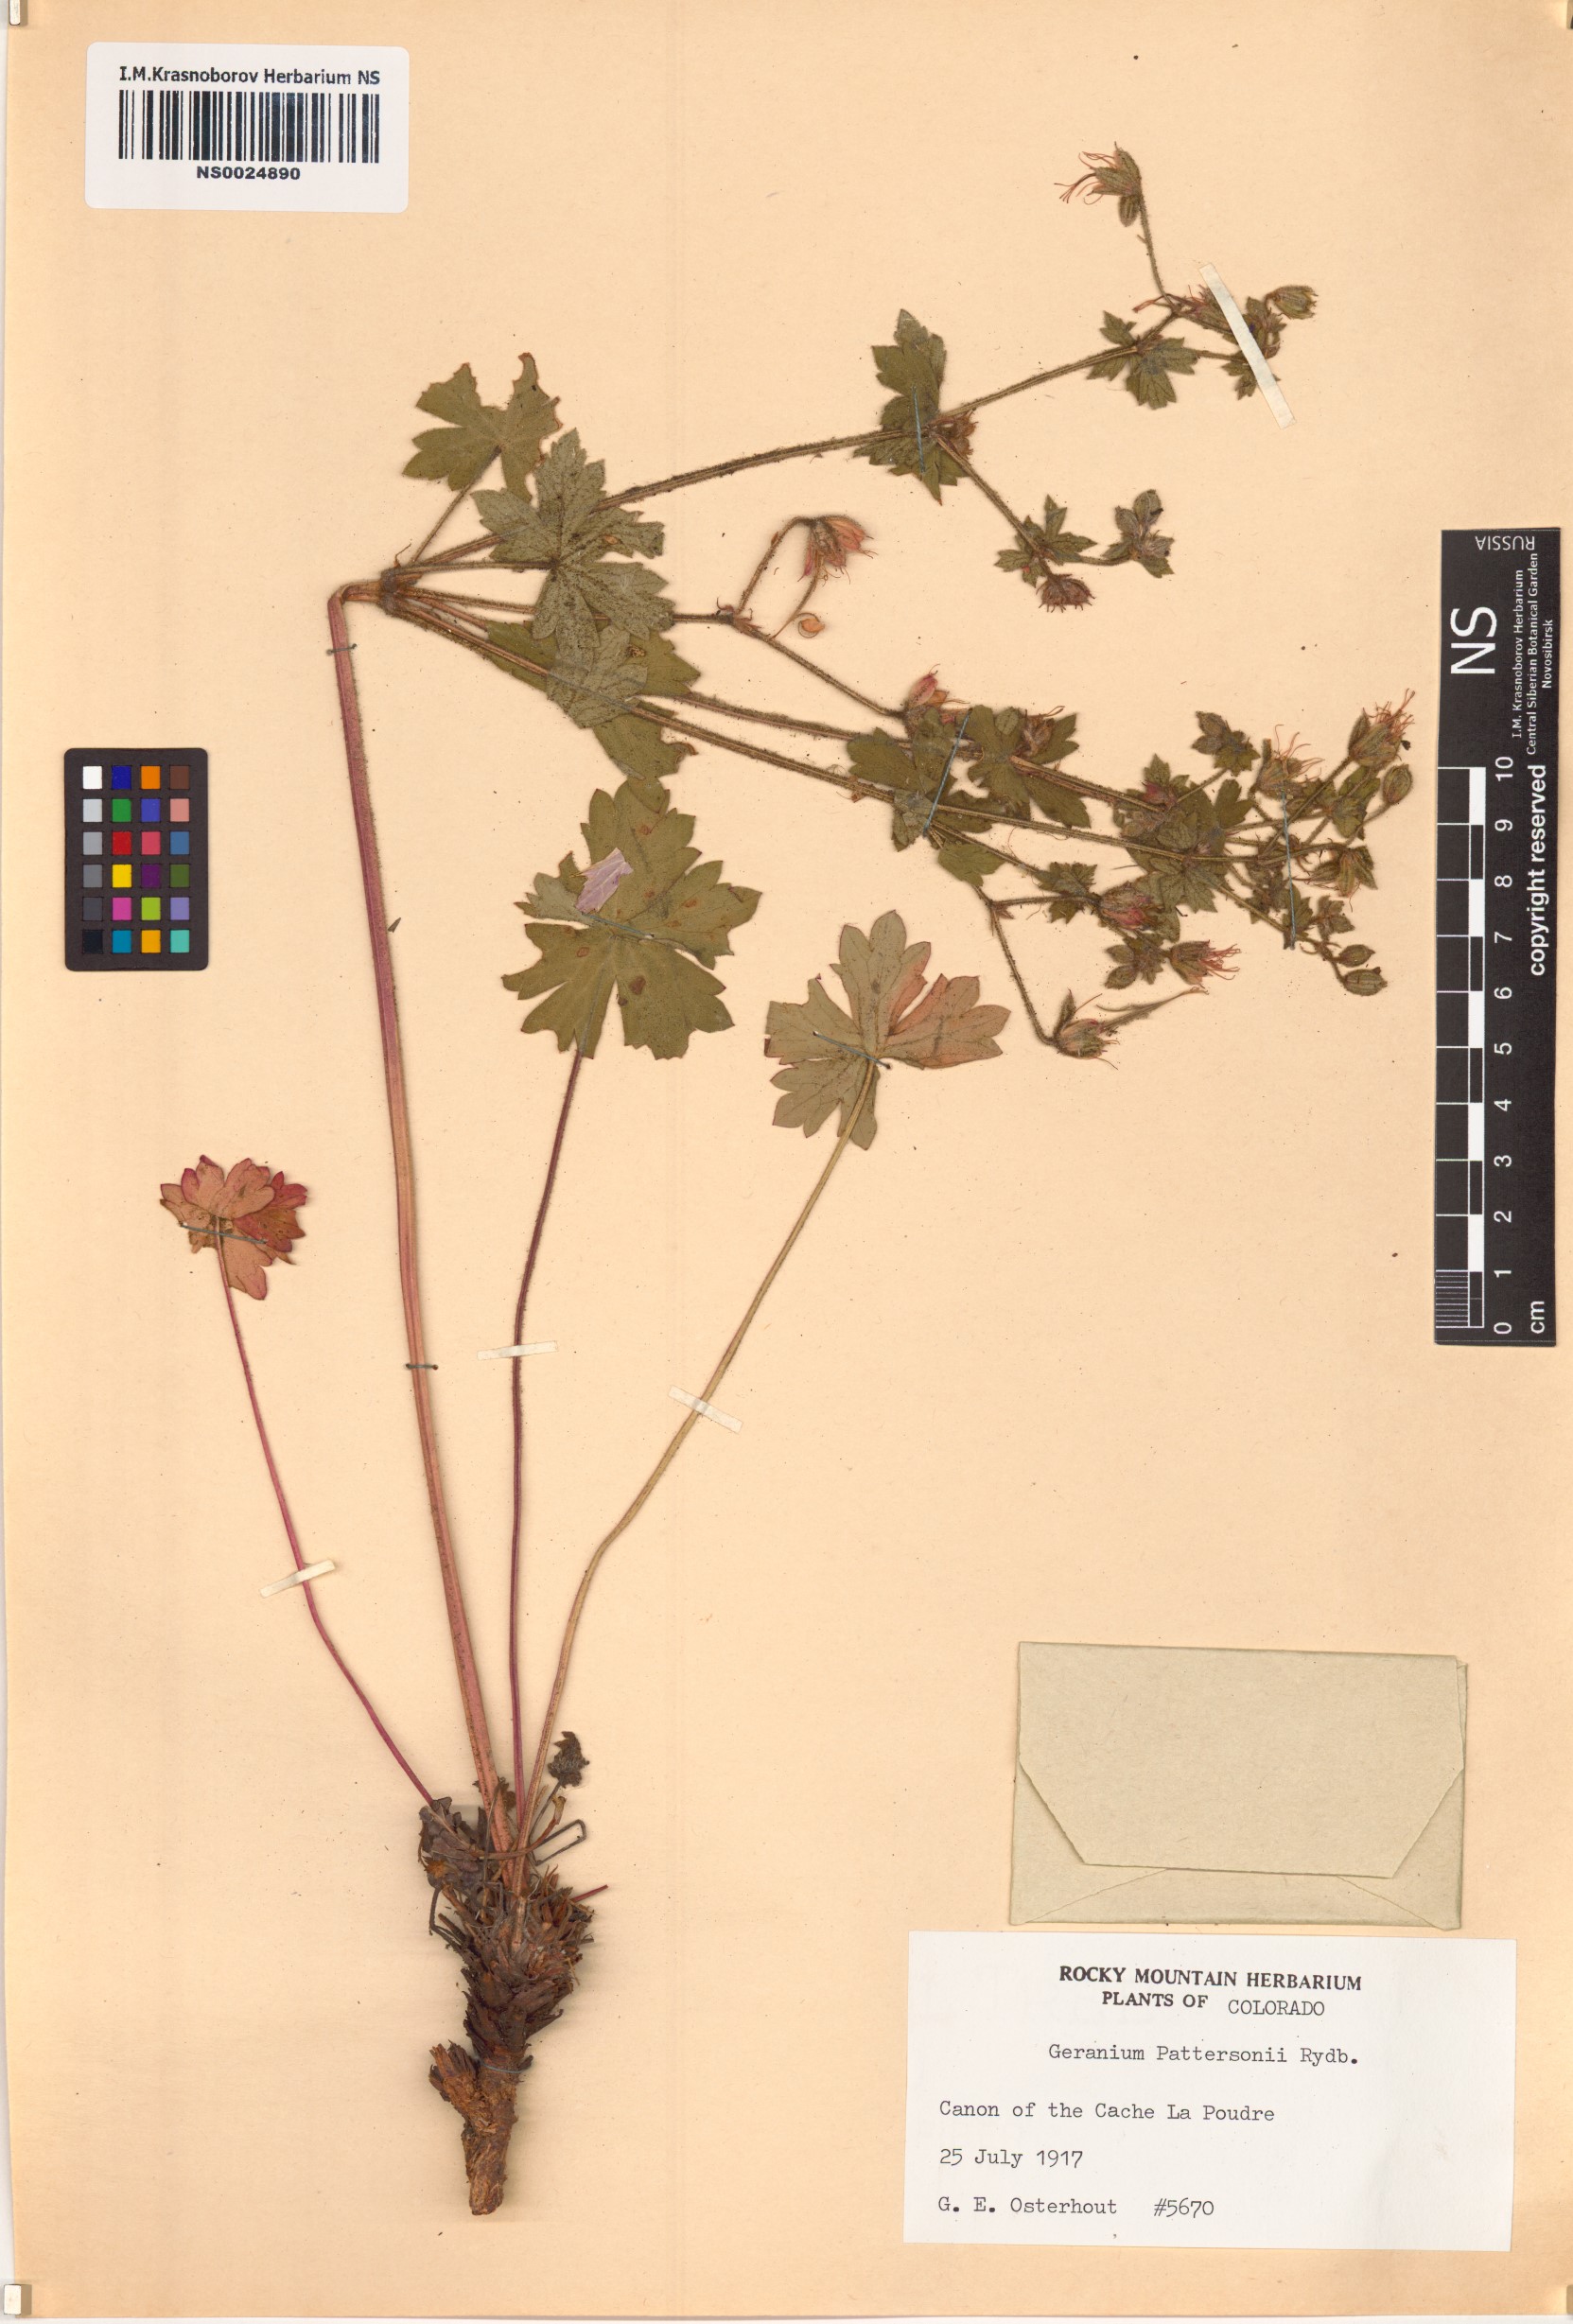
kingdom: Plantae
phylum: Tracheophyta
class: Magnoliopsida
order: Geraniales
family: Geraniaceae
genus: Geranium
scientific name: Geranium caespitosum
